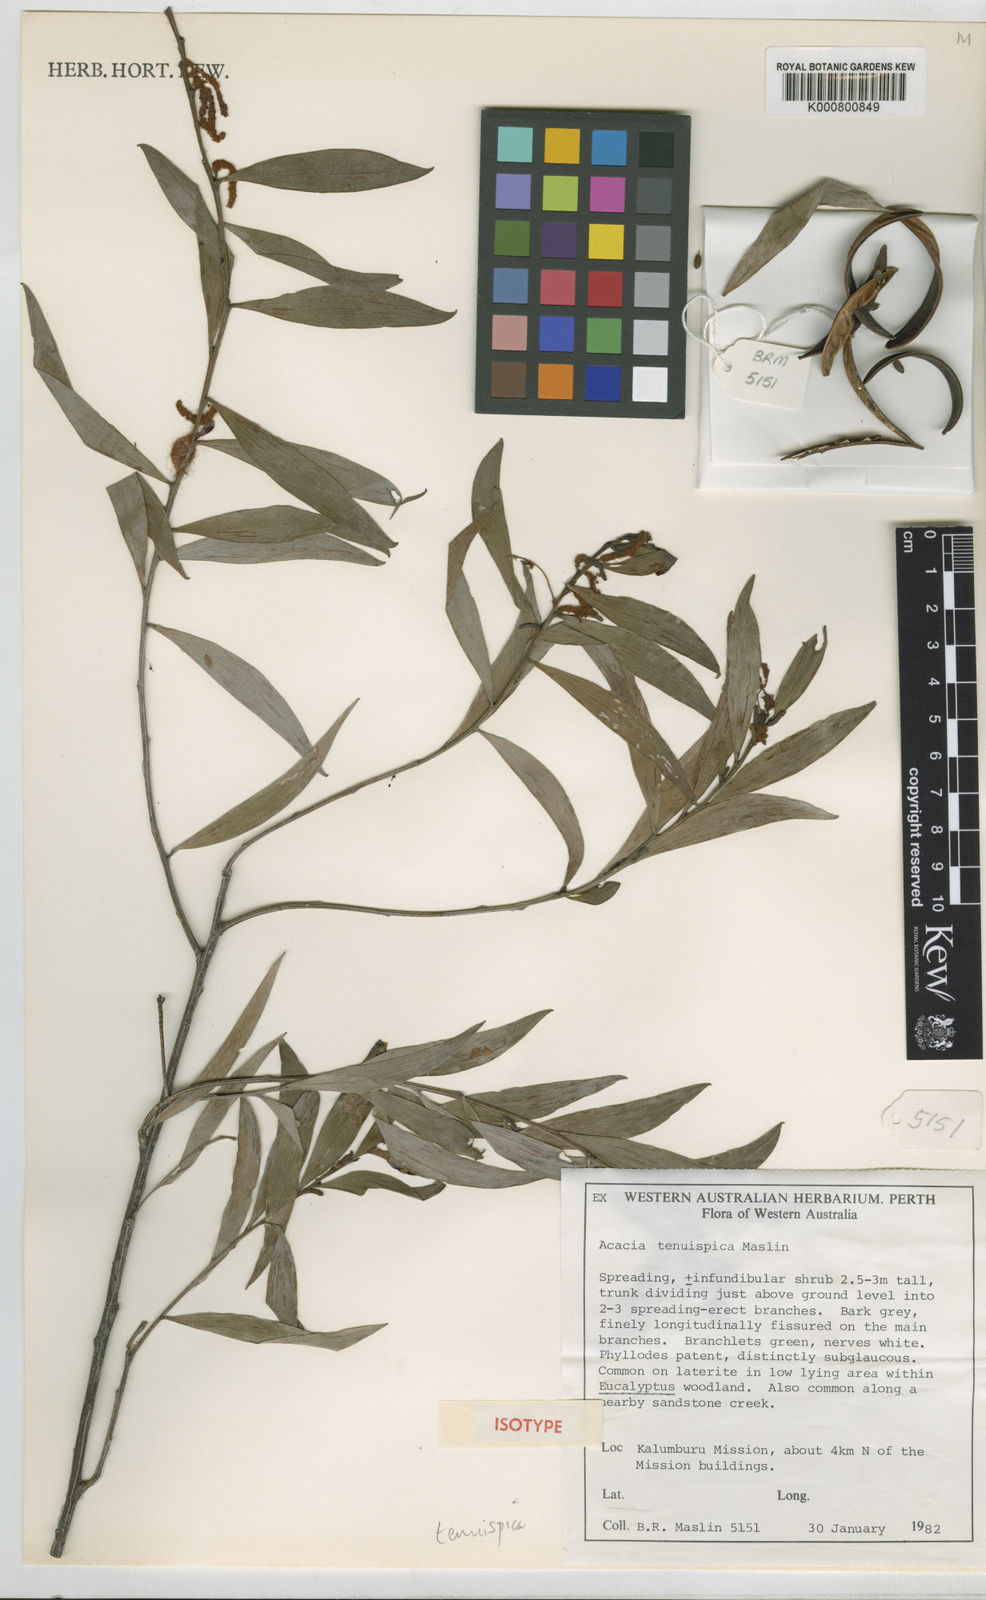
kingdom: Plantae
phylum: Tracheophyta
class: Magnoliopsida
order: Fabales
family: Fabaceae
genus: Acacia
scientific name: Acacia tenuispica
